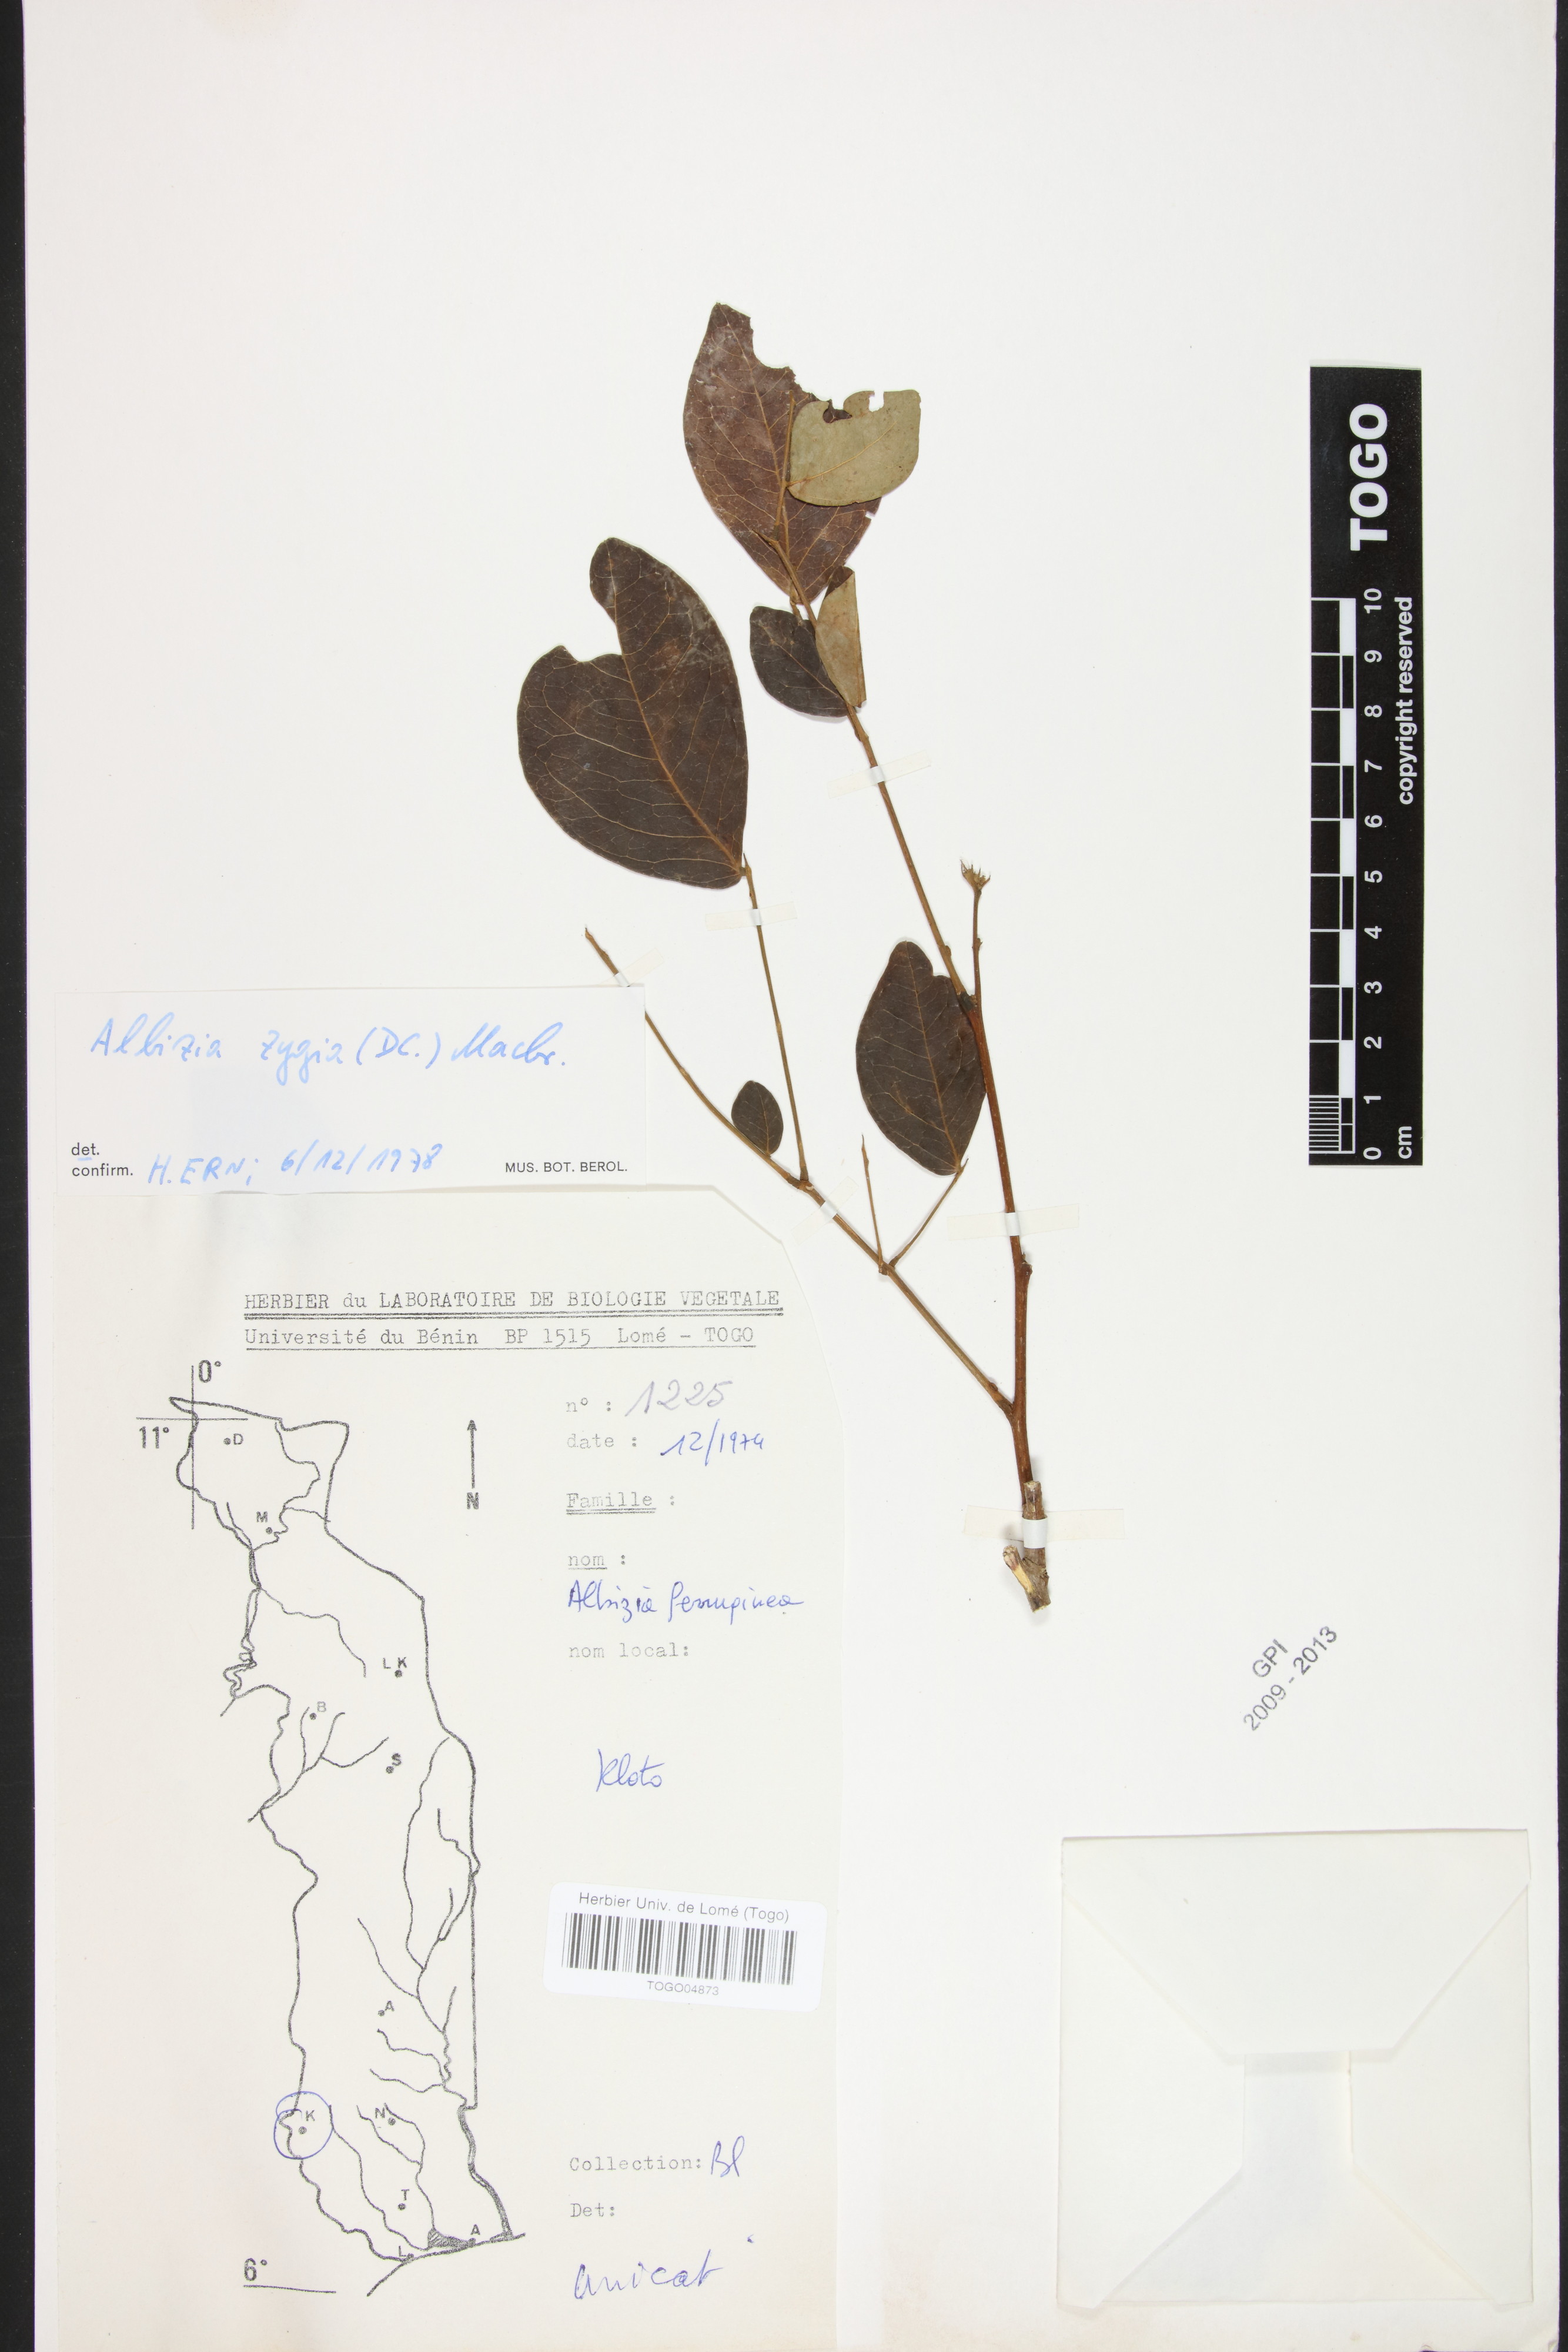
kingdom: Plantae
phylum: Tracheophyta
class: Magnoliopsida
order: Fabales
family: Fabaceae
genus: Albizia
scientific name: Albizia ferruginea
